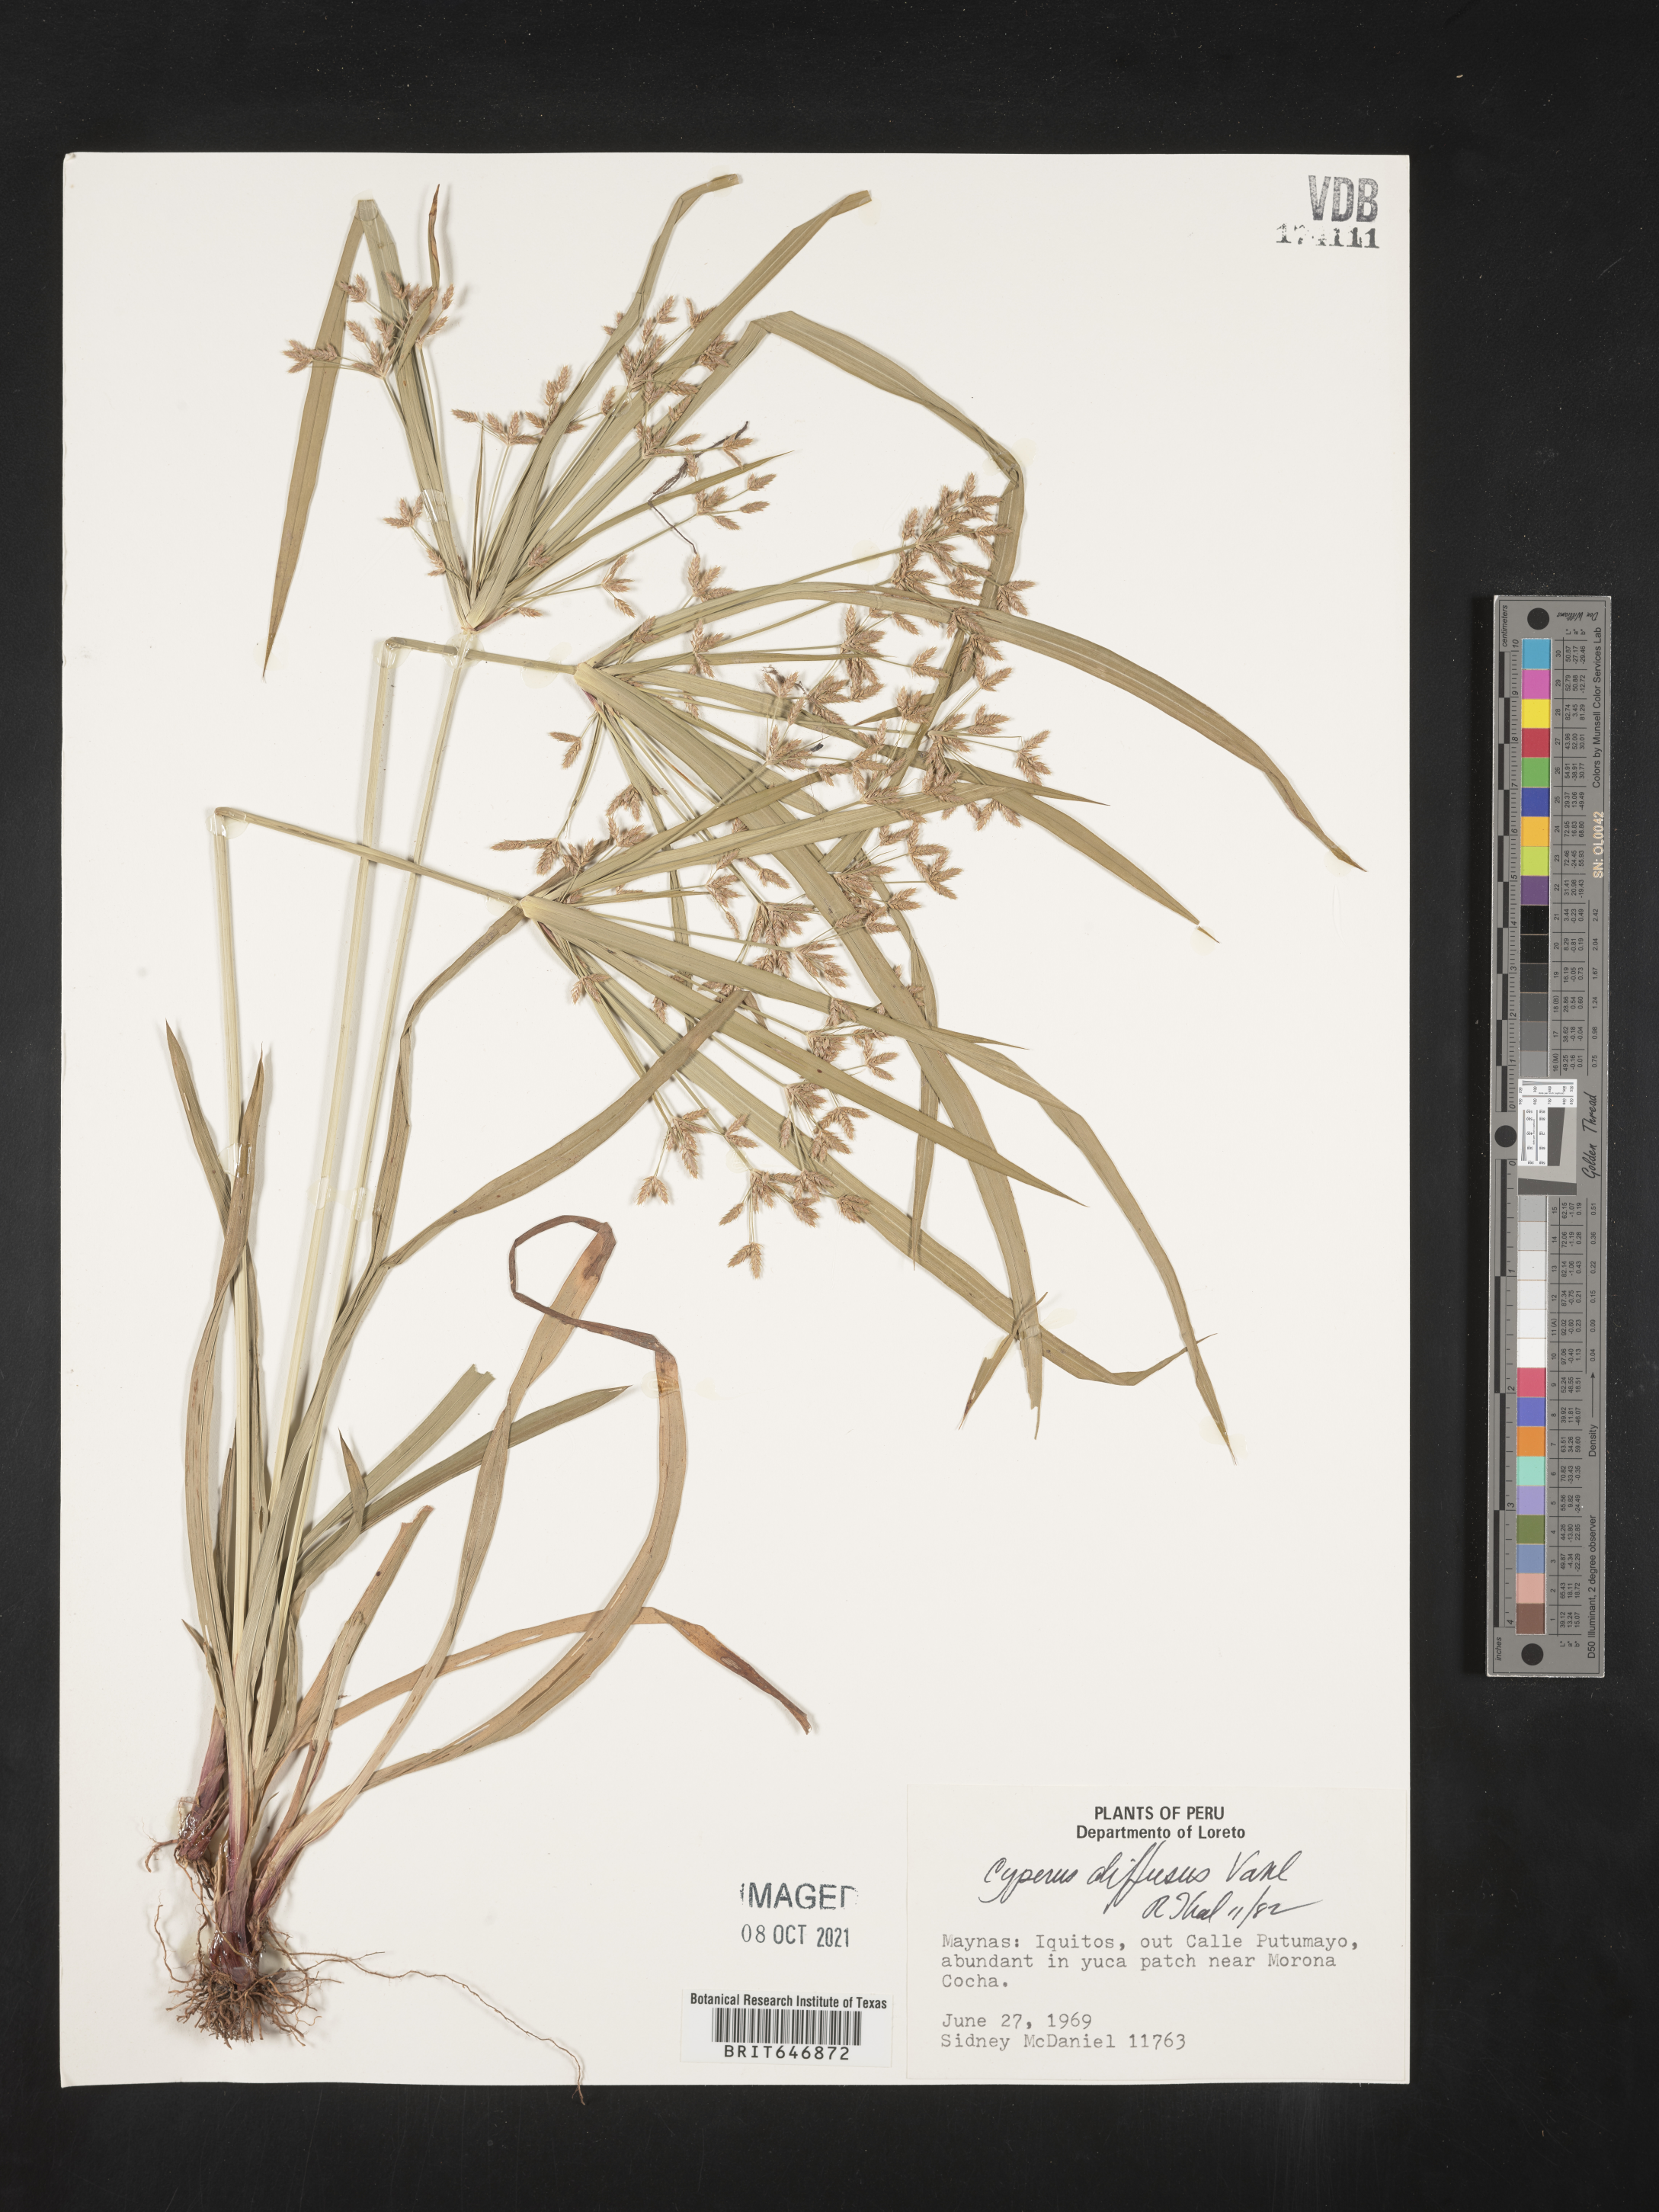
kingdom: Plantae
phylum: Tracheophyta
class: Liliopsida
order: Poales
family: Cyperaceae
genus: Cyperus
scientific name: Cyperus diffusus
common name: Dwarf umbrella grass
